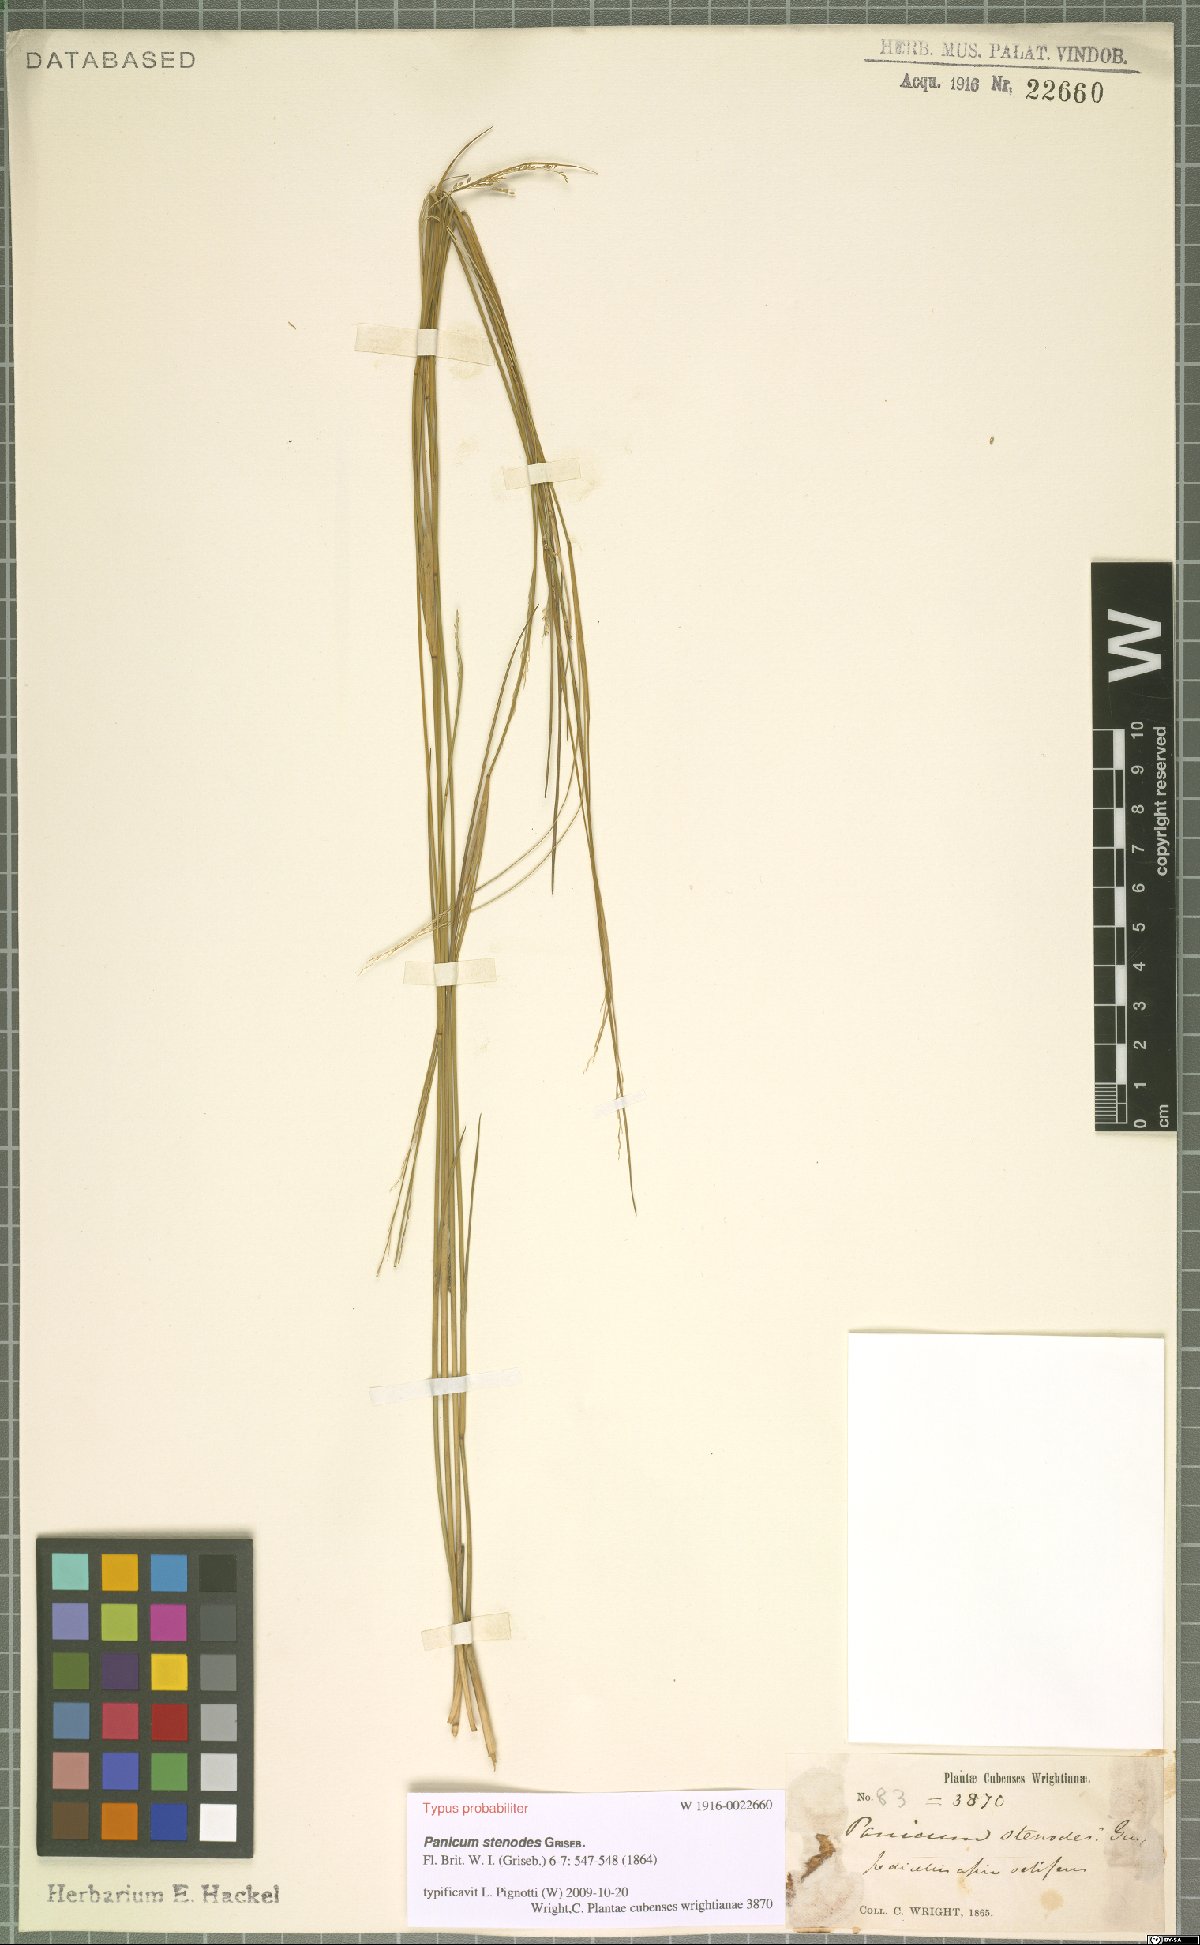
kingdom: Plantae
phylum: Tracheophyta
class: Liliopsida
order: Poales
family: Poaceae
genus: Coleataenia
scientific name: Coleataenia stenodes
